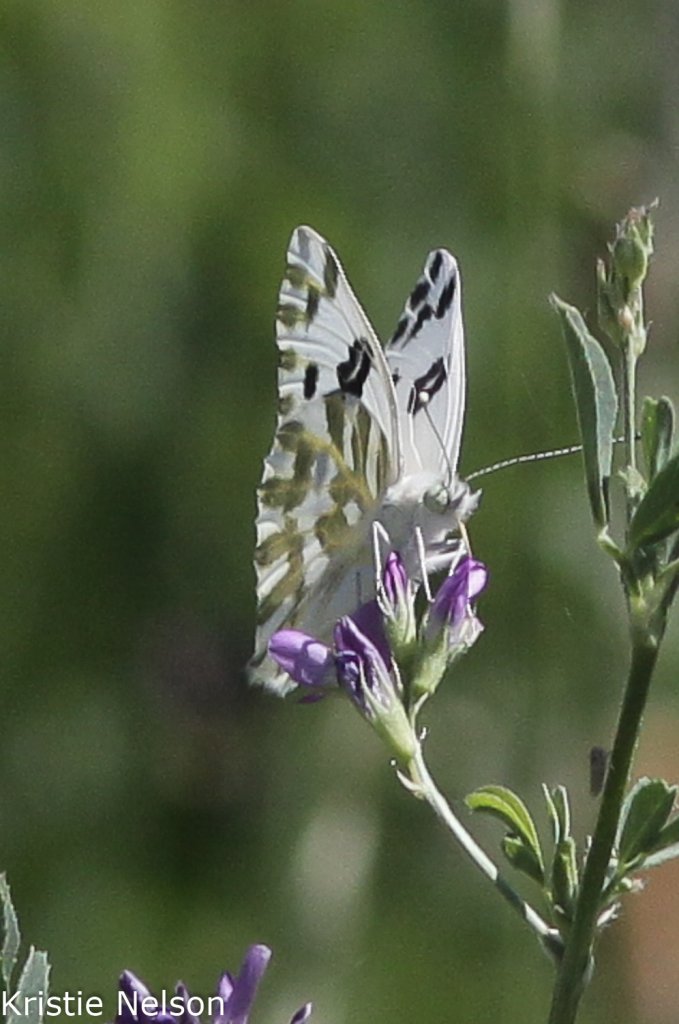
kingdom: Animalia
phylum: Arthropoda
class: Insecta
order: Lepidoptera
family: Pieridae
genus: Pontia
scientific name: Pontia beckerii
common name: Becker's White
